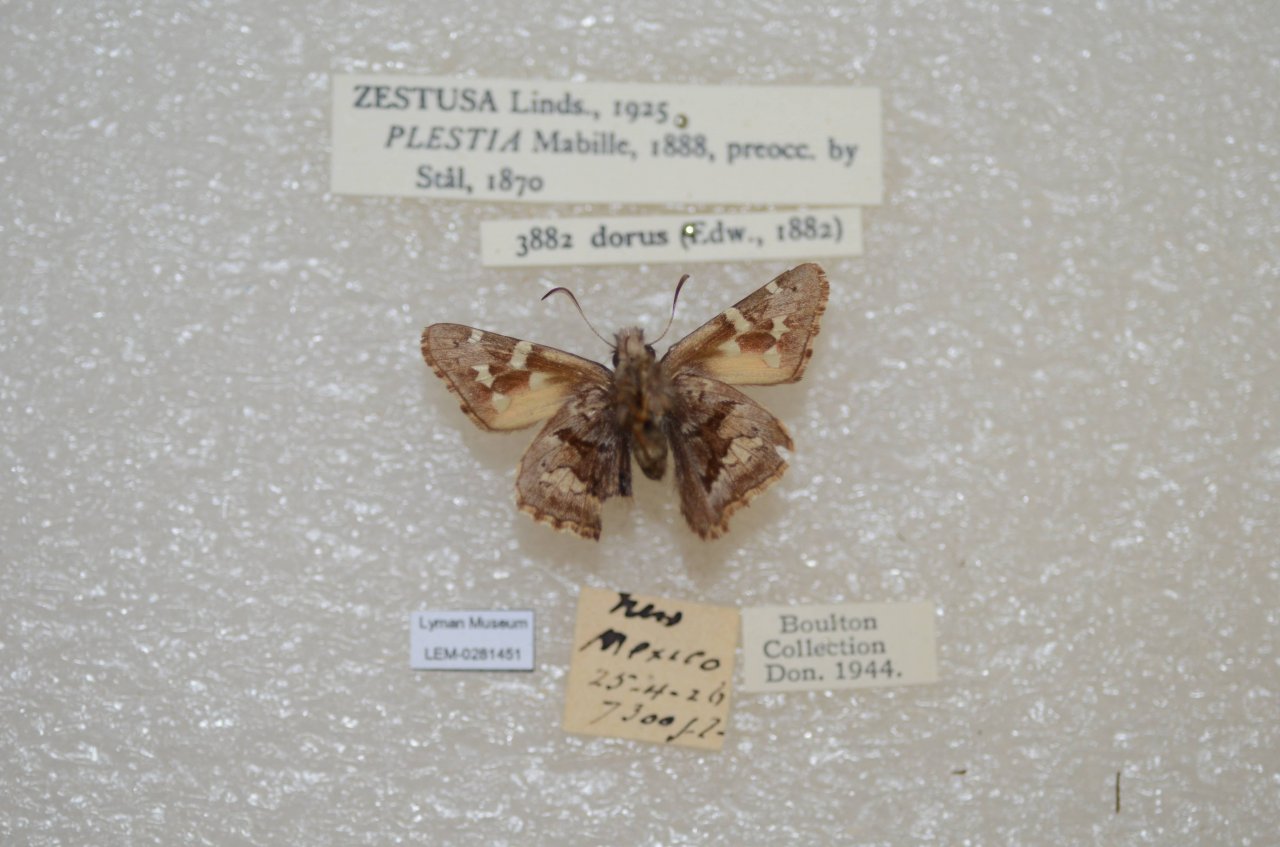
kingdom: Animalia
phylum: Arthropoda
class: Insecta
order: Lepidoptera
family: Hesperiidae
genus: Zestusa
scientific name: Zestusa dorus
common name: Short-tailed Skipper
